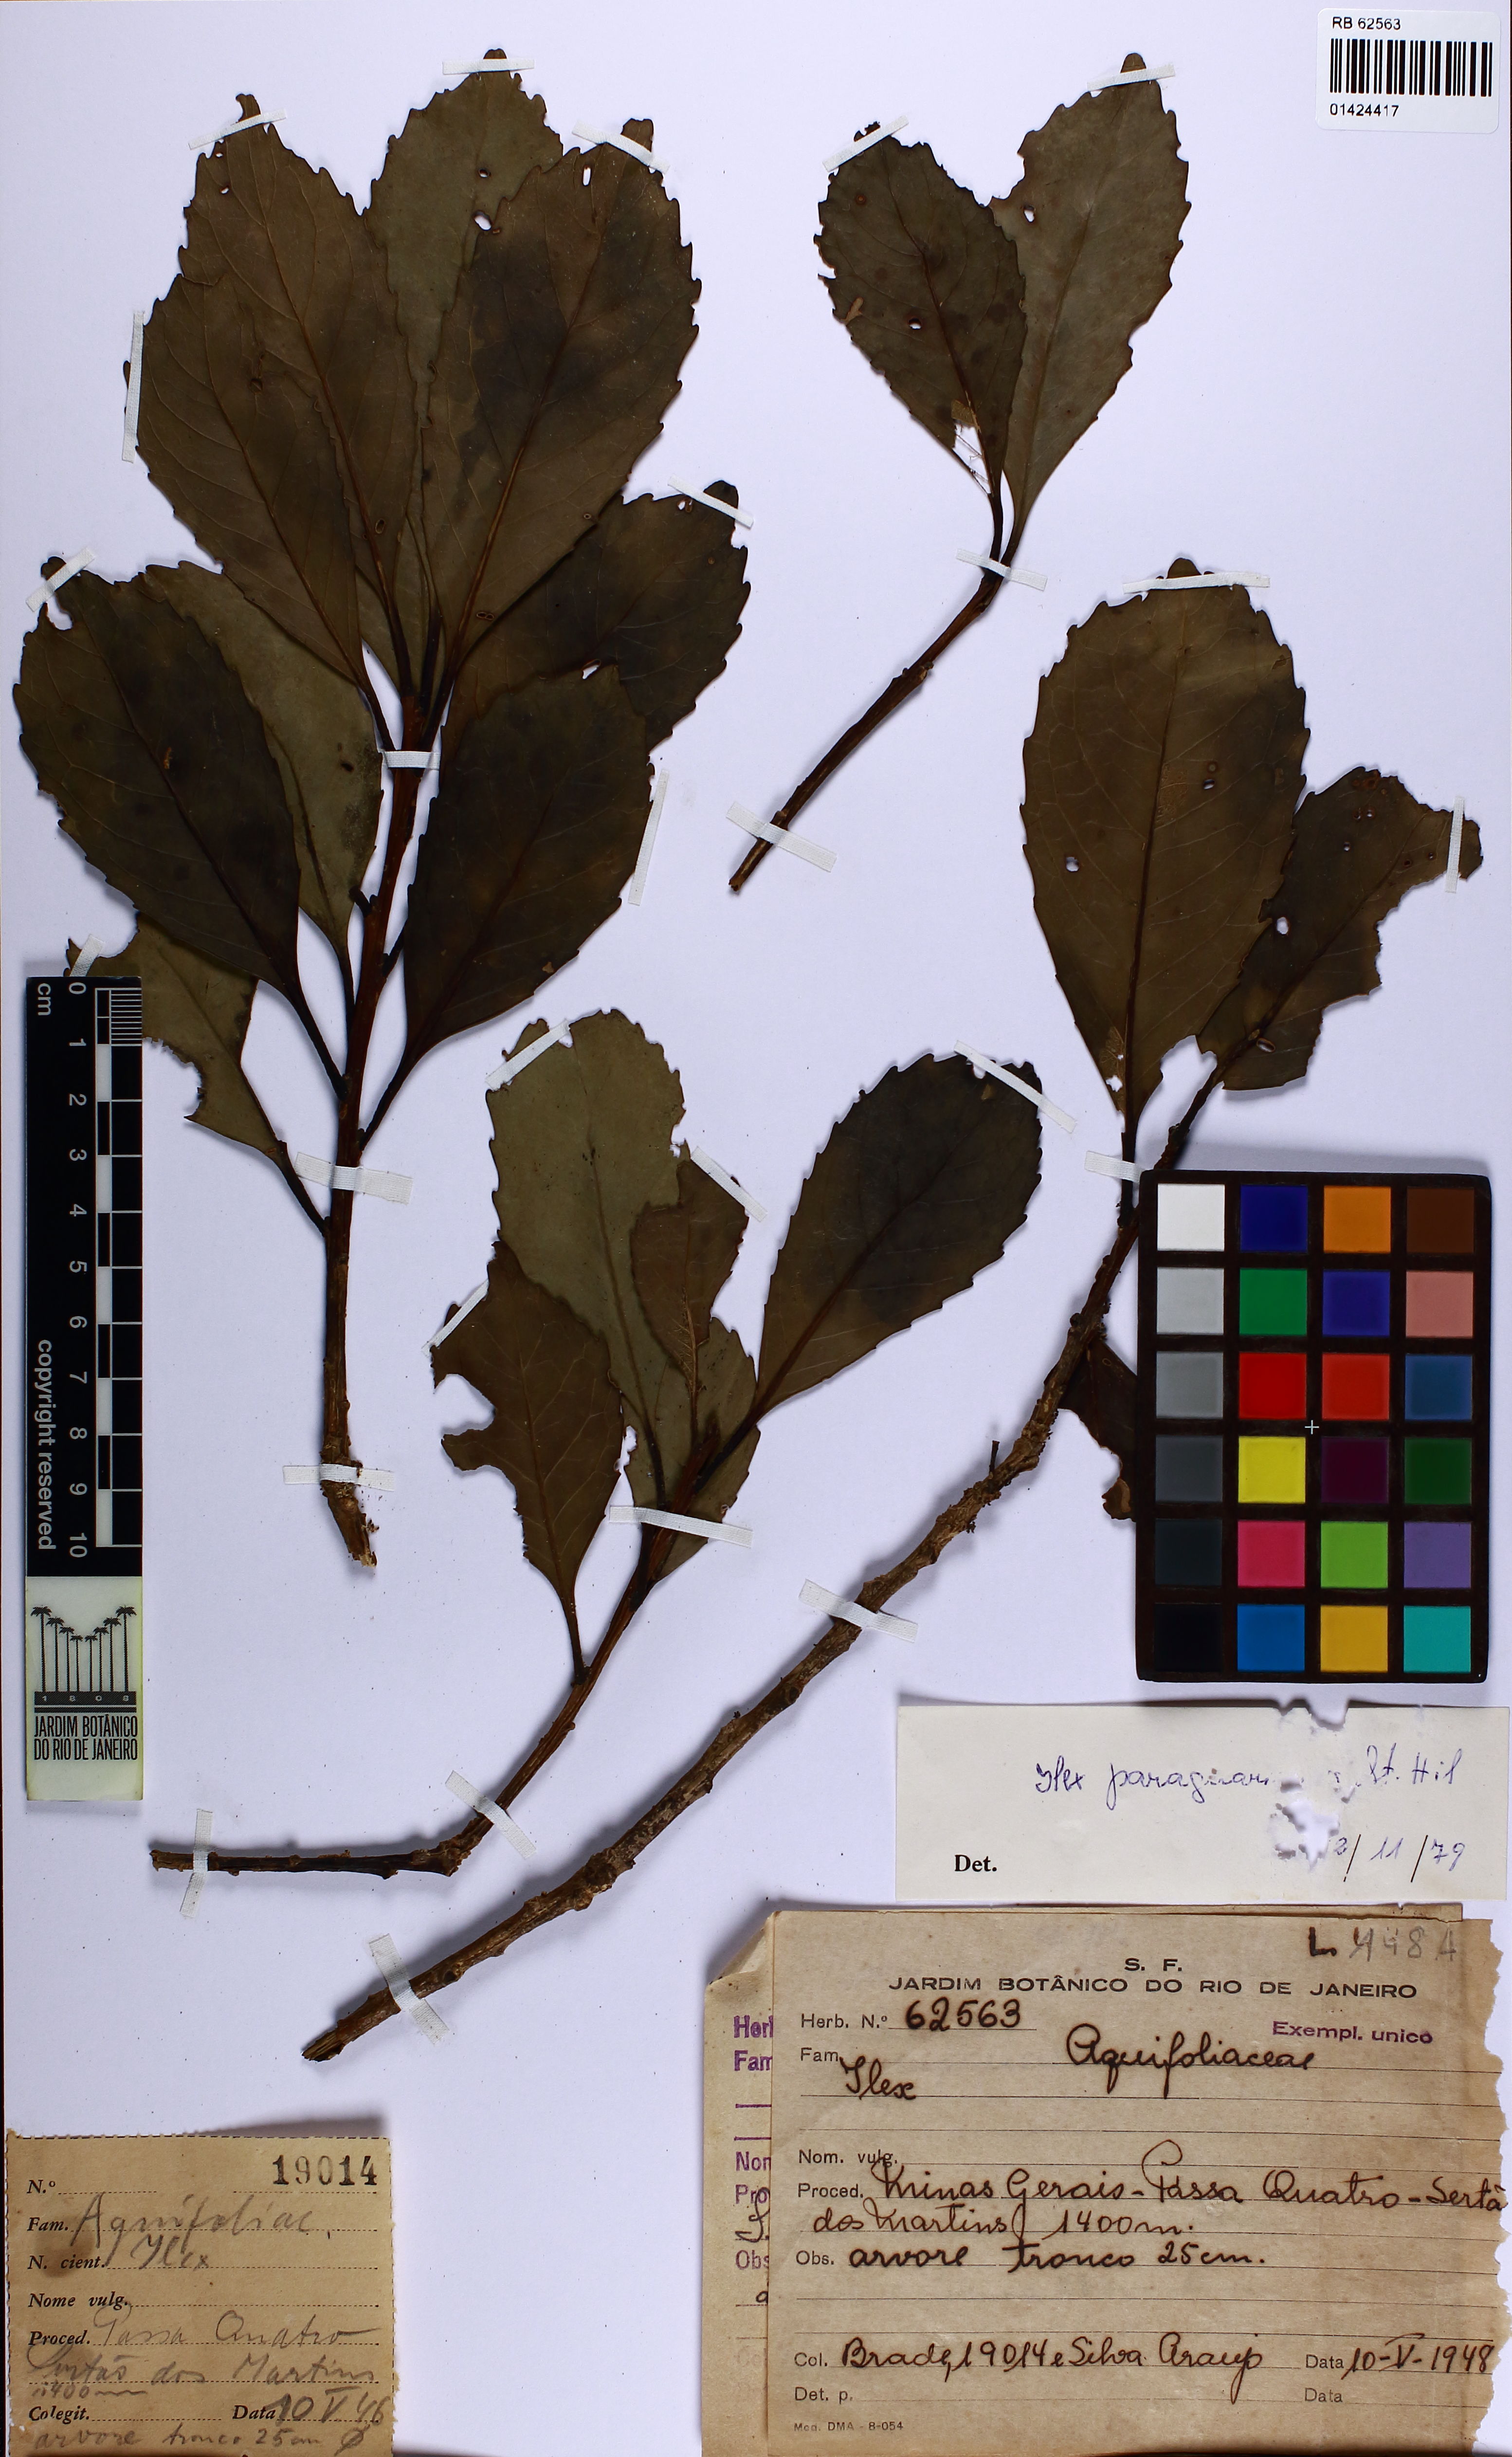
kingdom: Plantae
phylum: Tracheophyta
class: Magnoliopsida
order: Aquifoliales
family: Aquifoliaceae
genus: Ilex
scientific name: Ilex paraguariensis
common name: Paraguay tea
